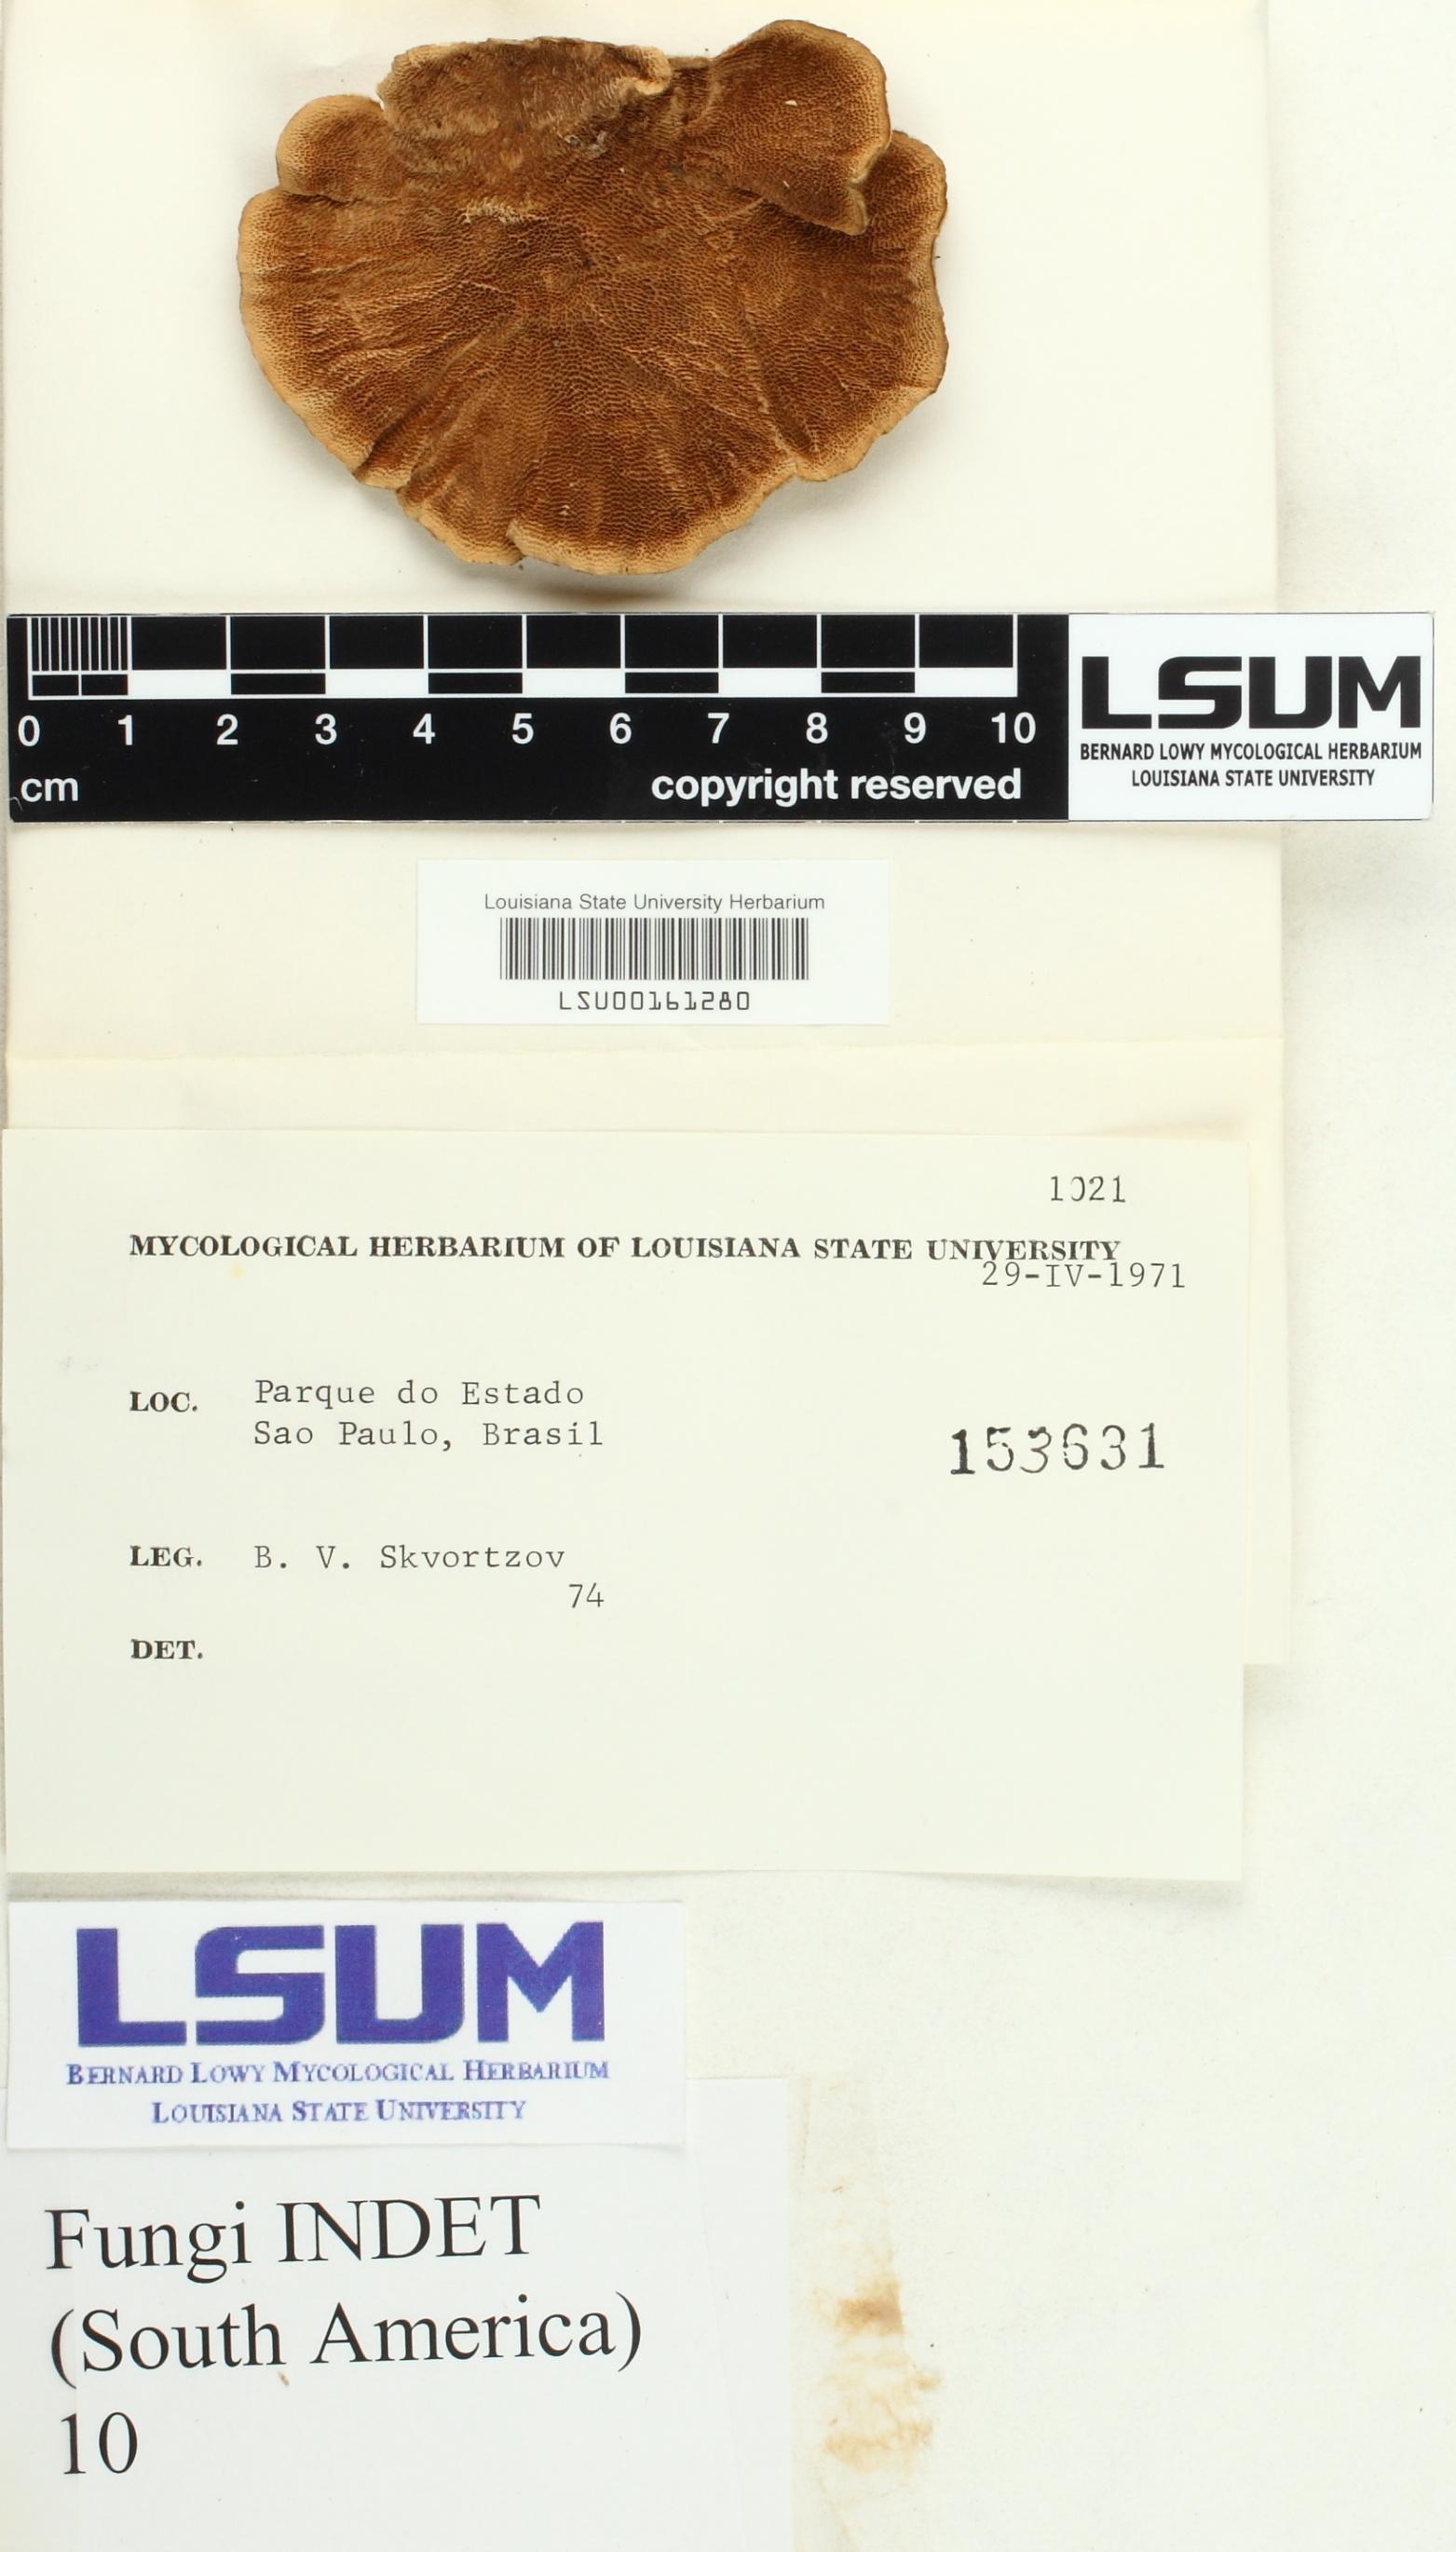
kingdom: Fungi
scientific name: Fungi
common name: Fungi
